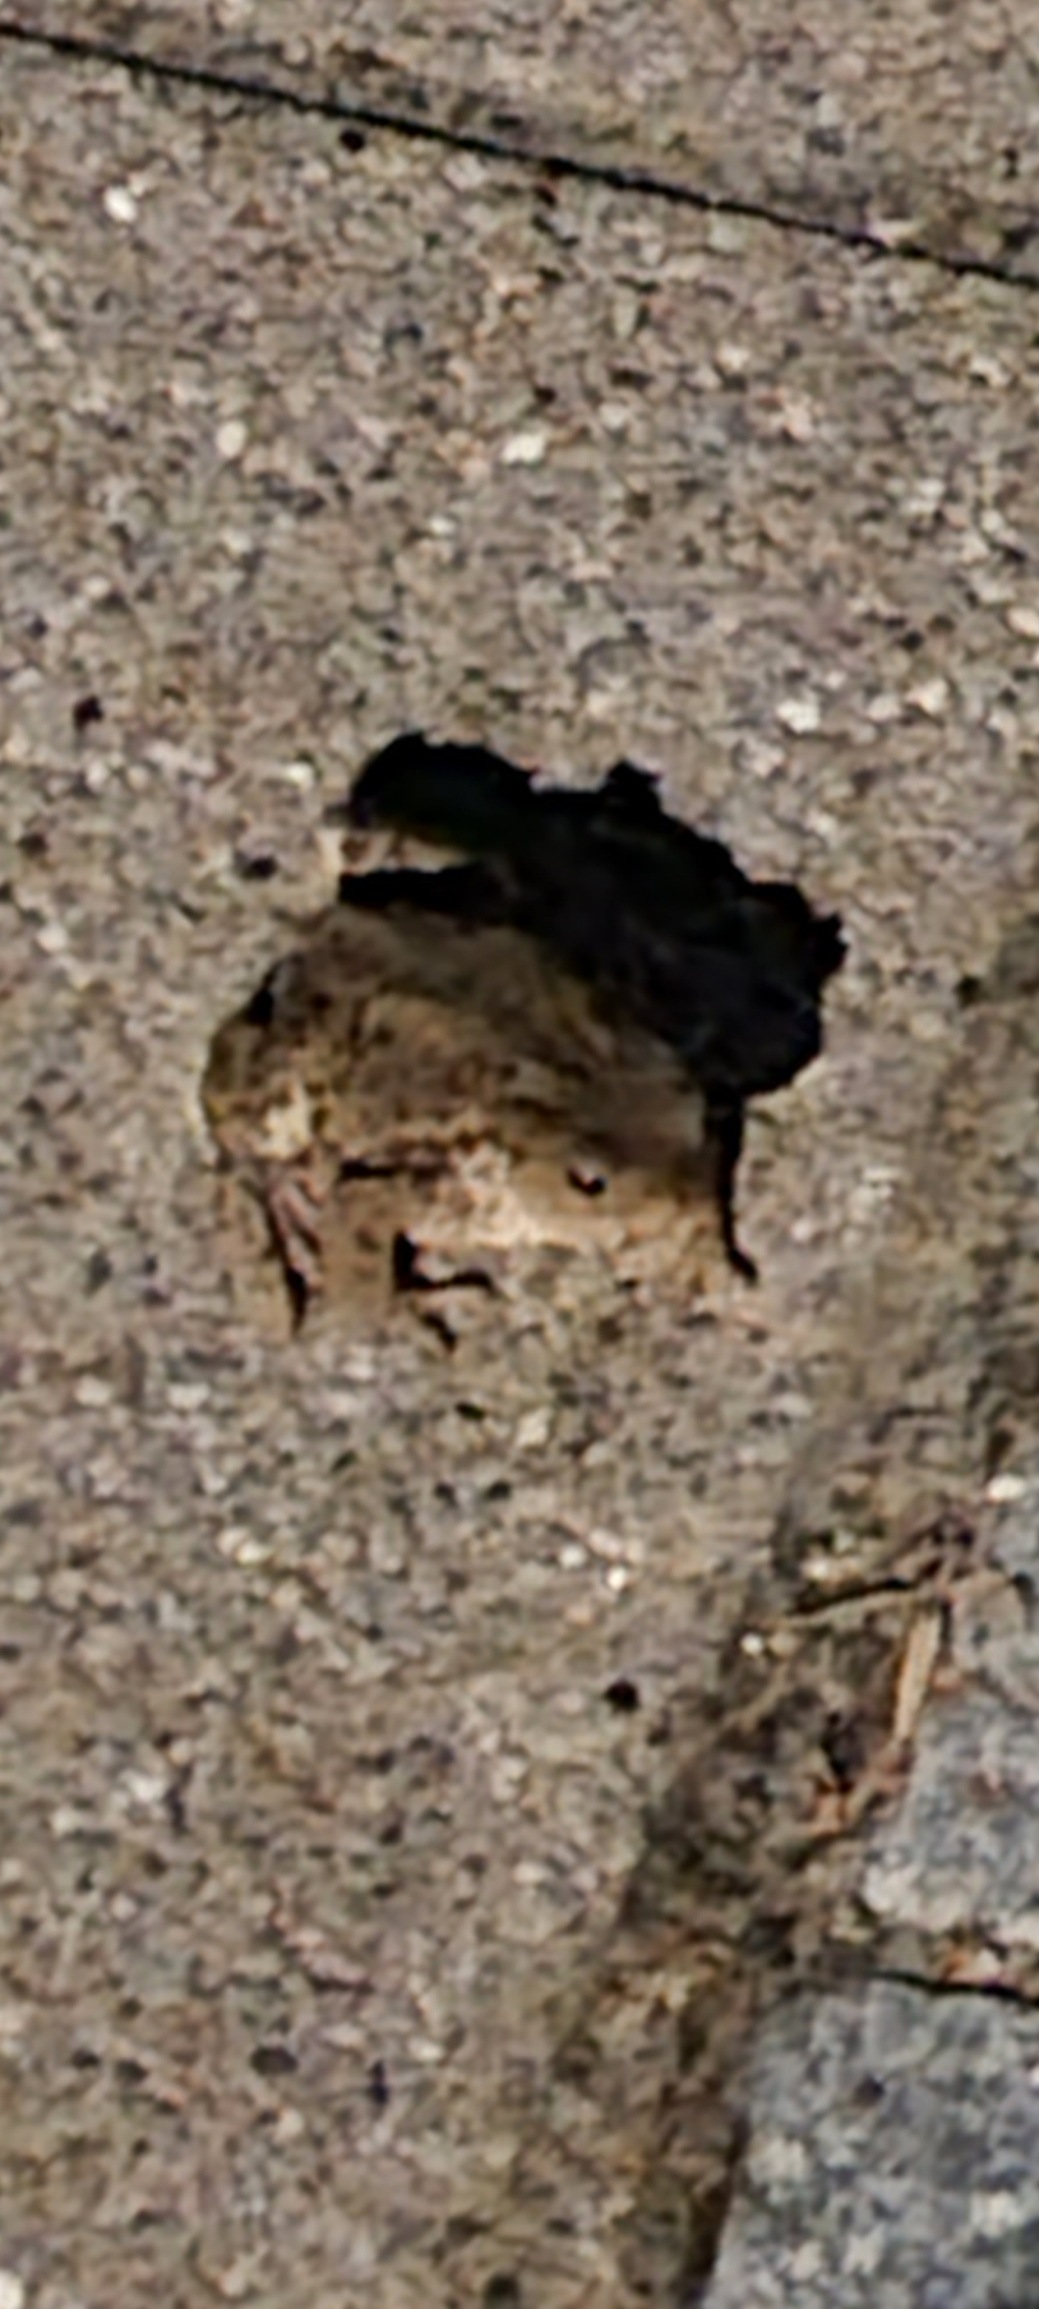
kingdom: Animalia
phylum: Chordata
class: Amphibia
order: Anura
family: Bufonidae
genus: Bufo
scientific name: Bufo bufo
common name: Skrubtudse
